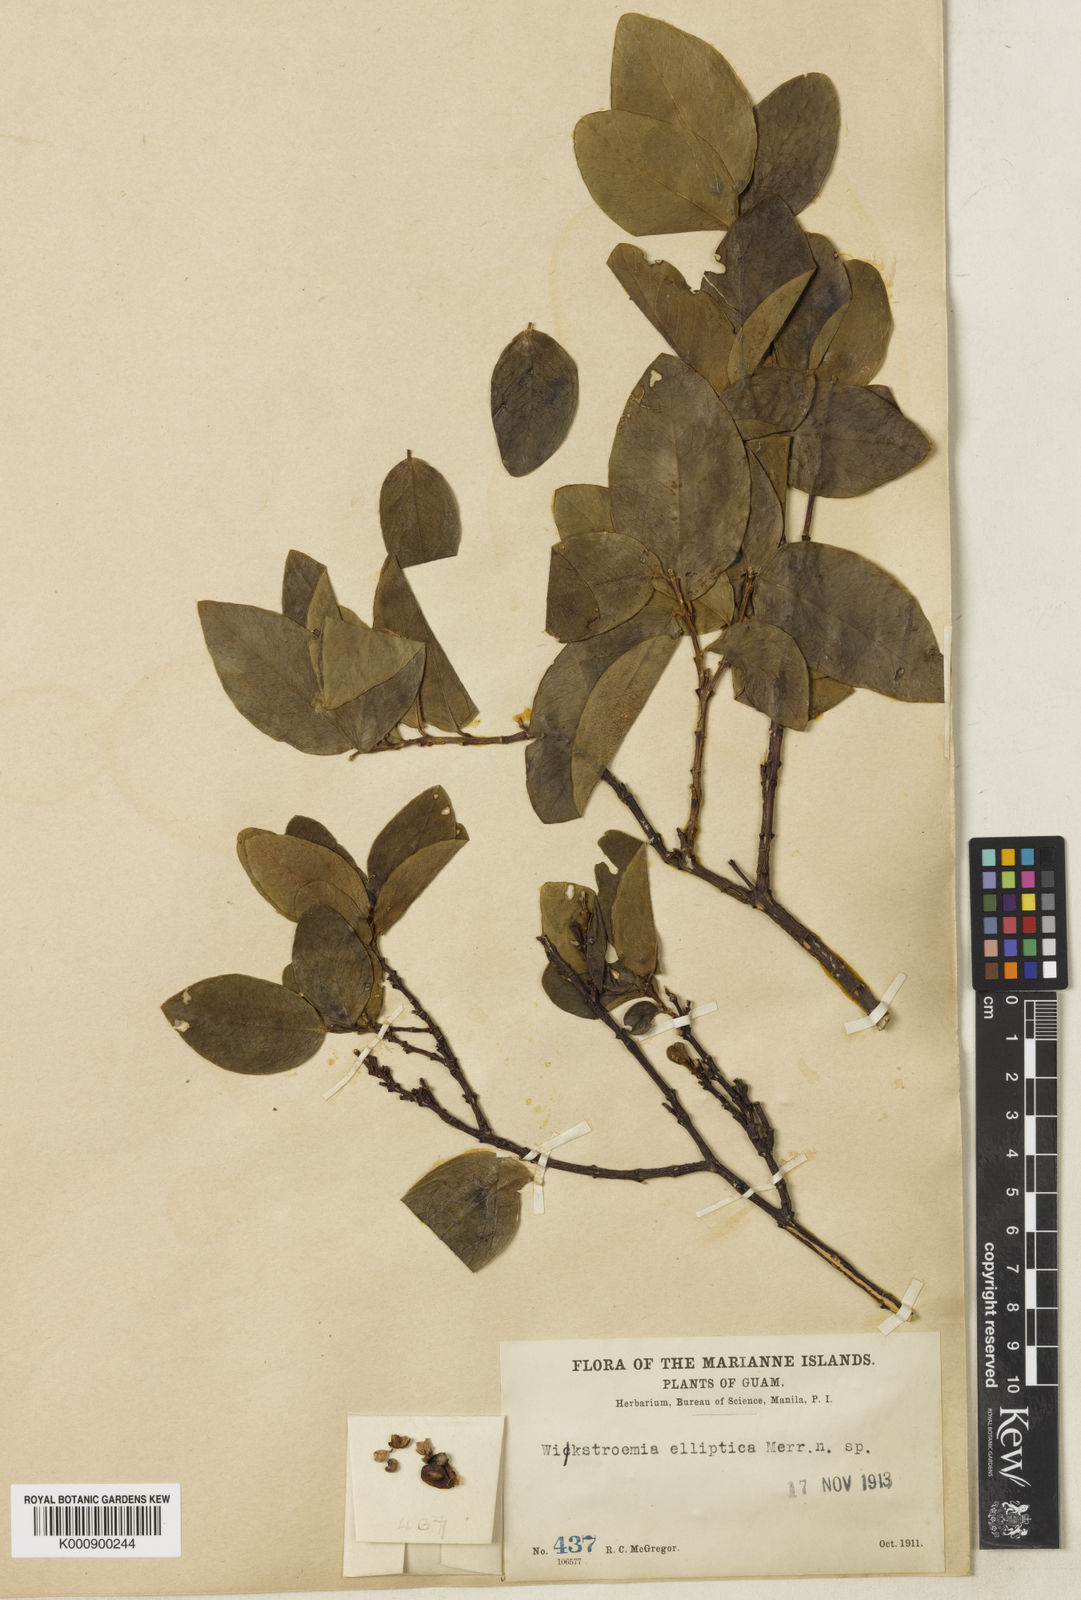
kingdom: Plantae
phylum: Tracheophyta
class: Magnoliopsida
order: Malvales
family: Thymelaeaceae
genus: Wikstroemia
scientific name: Wikstroemia elliptica
